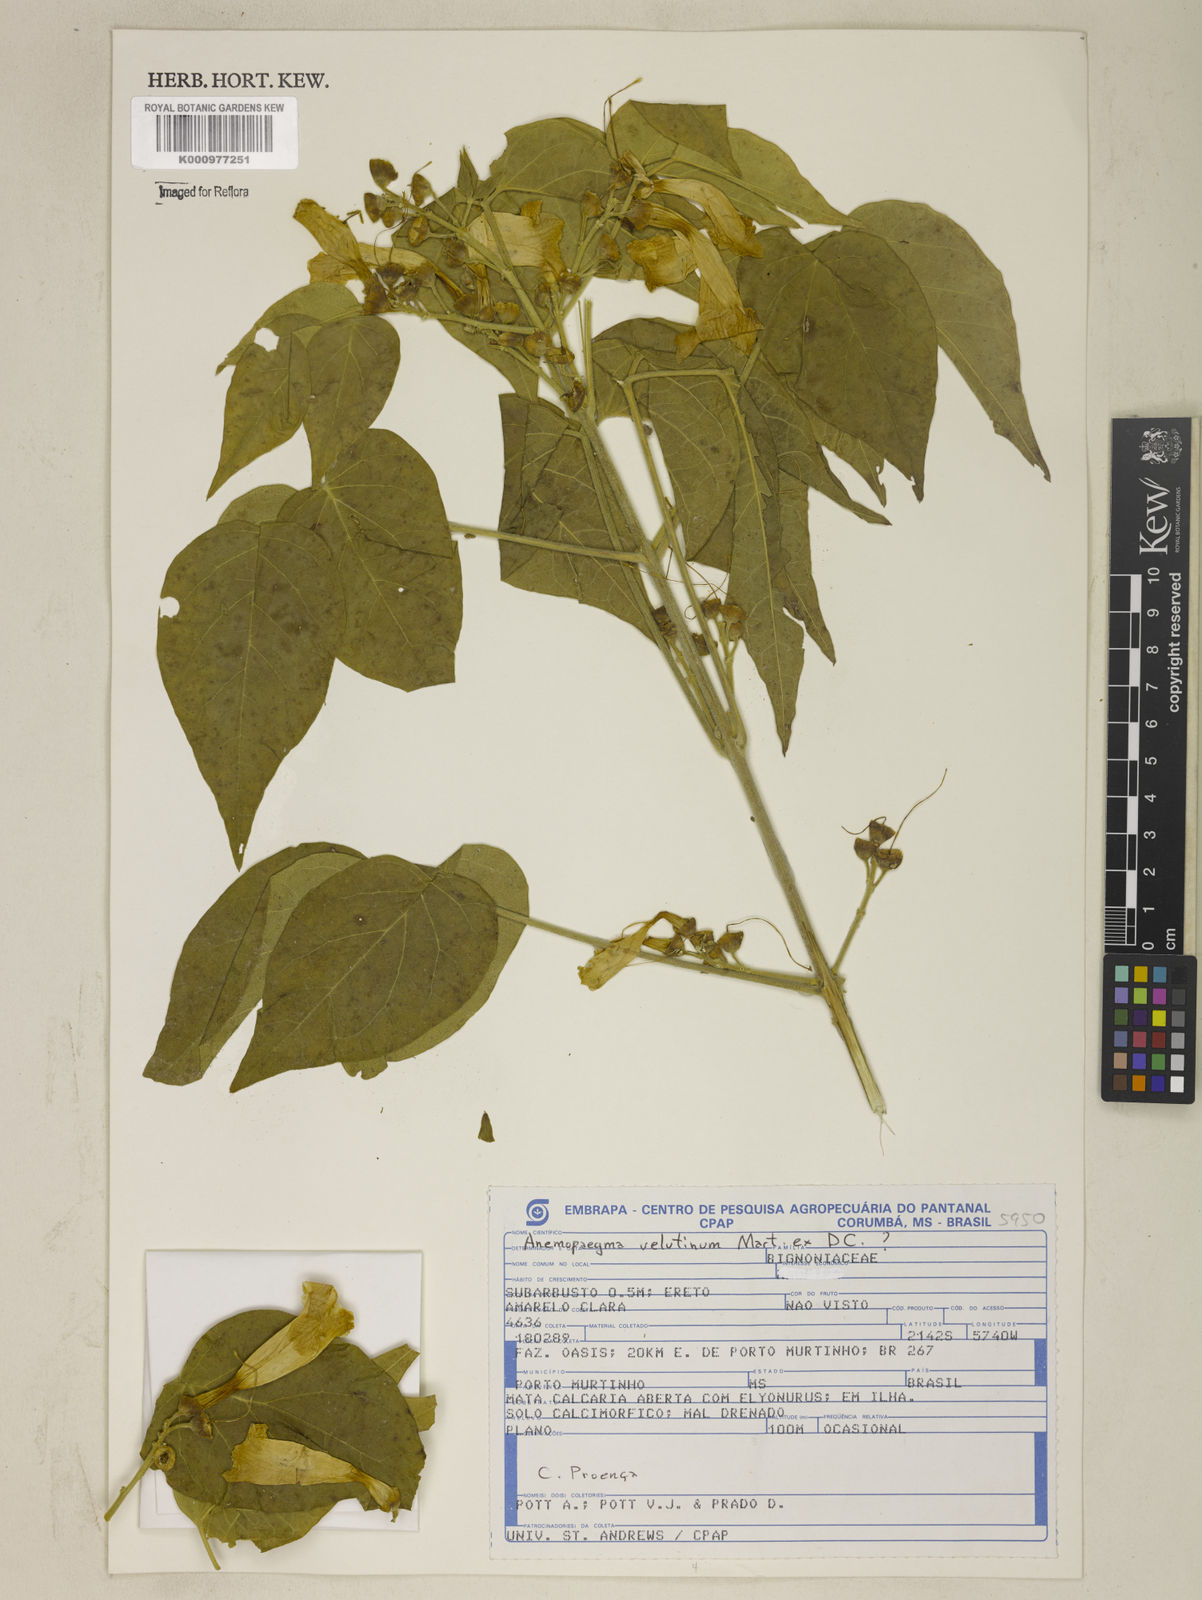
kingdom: Plantae
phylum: Tracheophyta
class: Magnoliopsida
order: Lamiales
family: Bignoniaceae
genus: Anemopaegma
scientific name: Anemopaegma longipetiolatum
